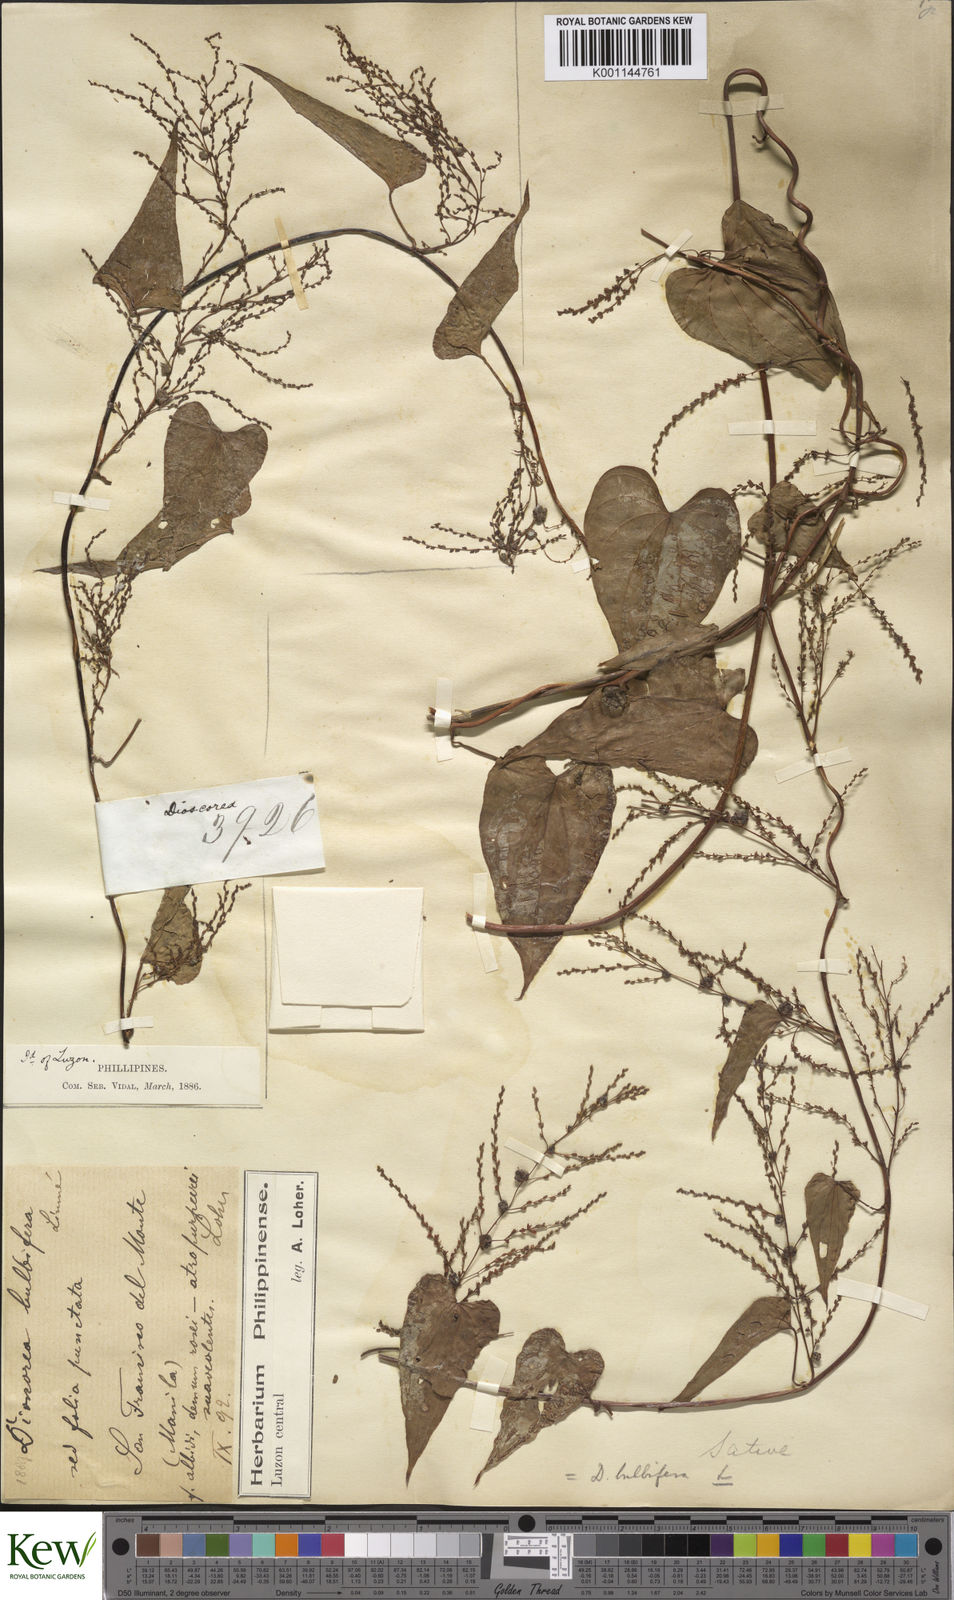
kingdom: Plantae
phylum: Tracheophyta
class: Liliopsida
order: Dioscoreales
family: Dioscoreaceae
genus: Dioscorea
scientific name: Dioscorea bulbifera
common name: Air yam
